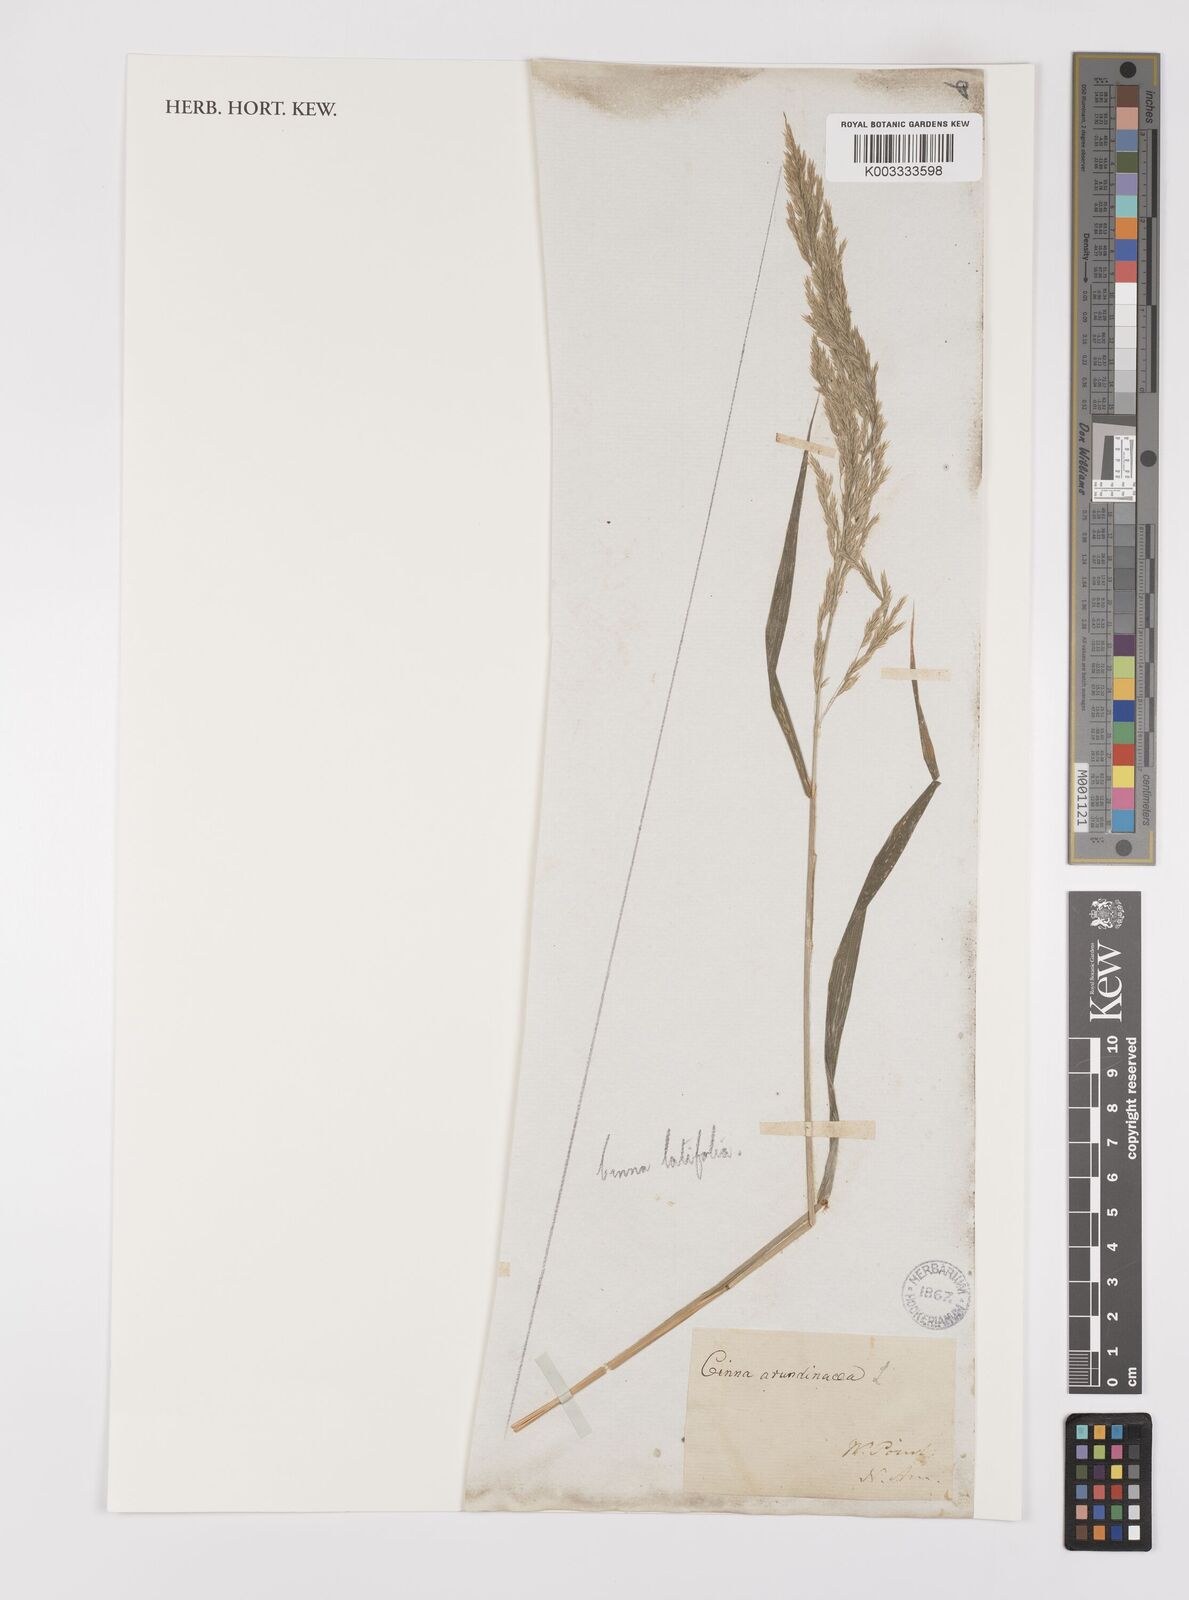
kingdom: Plantae
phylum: Tracheophyta
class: Liliopsida
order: Poales
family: Poaceae
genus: Cinna
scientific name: Cinna latifolia
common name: Drooping woodreed
